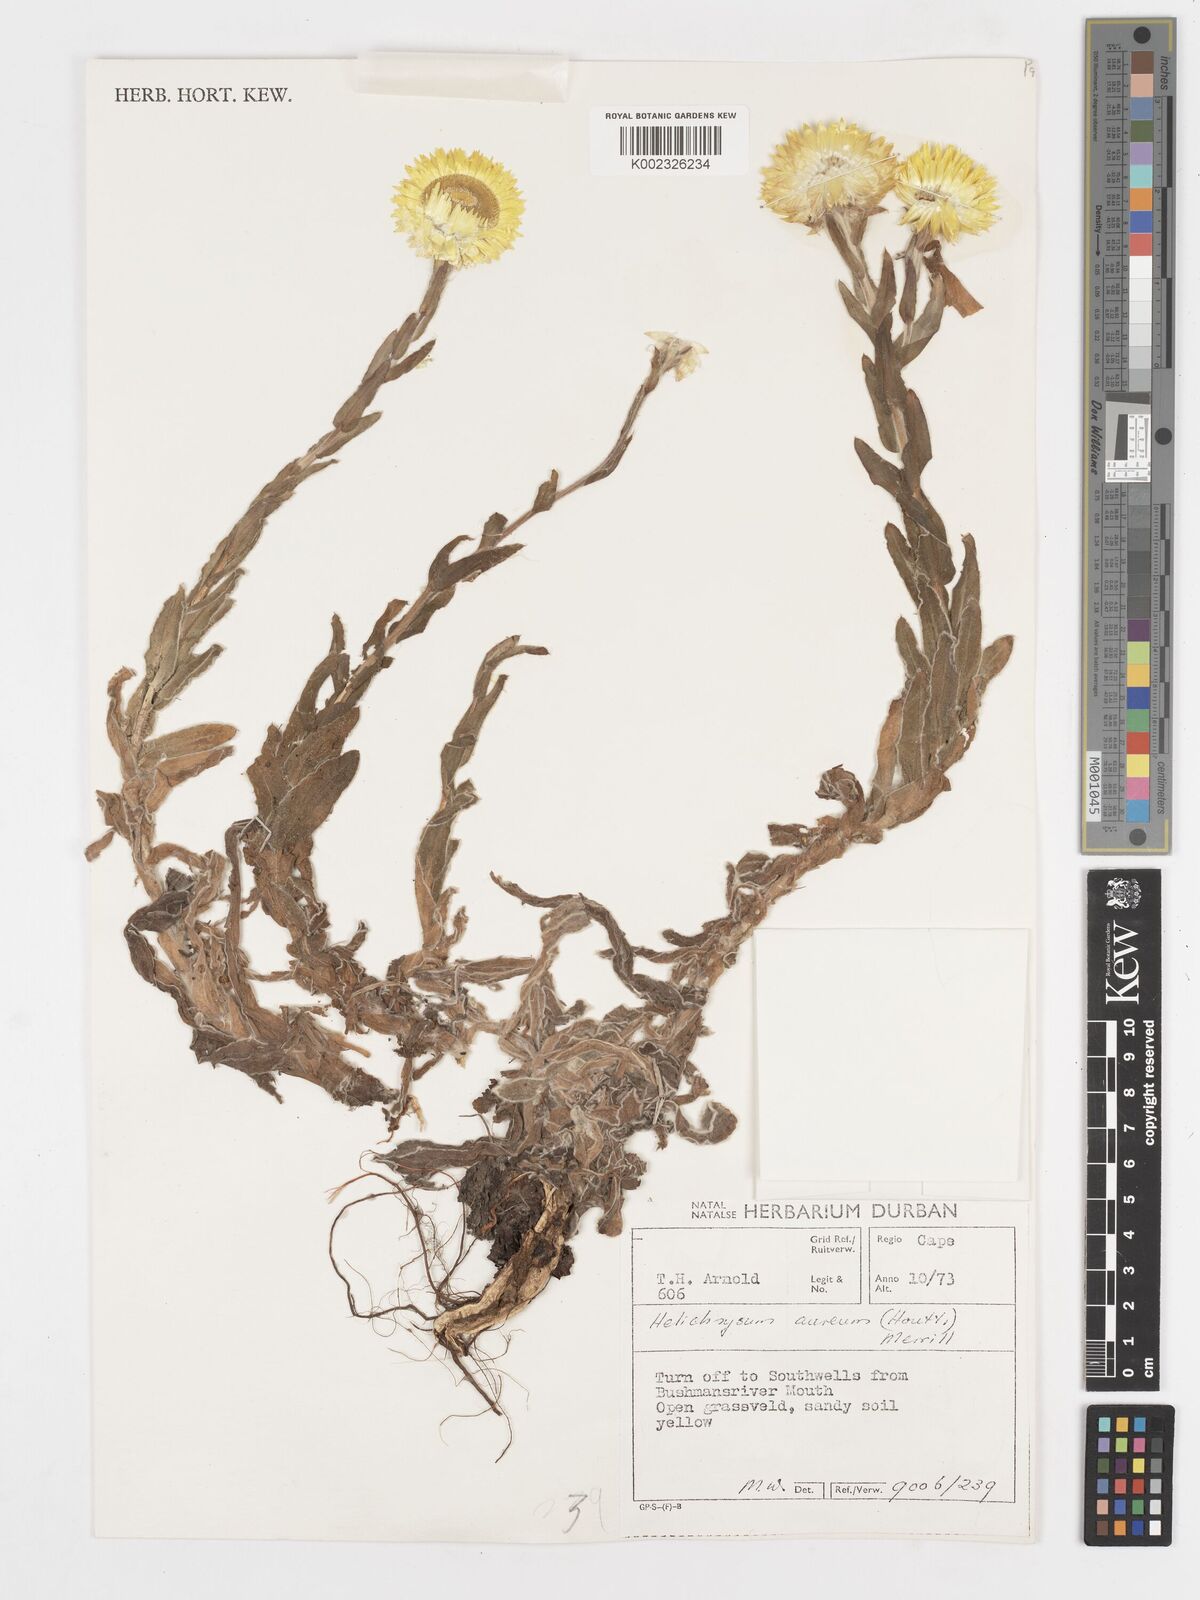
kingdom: Plantae
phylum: Tracheophyta
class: Magnoliopsida
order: Asterales
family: Asteraceae
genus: Helichrysum
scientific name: Helichrysum aureum
